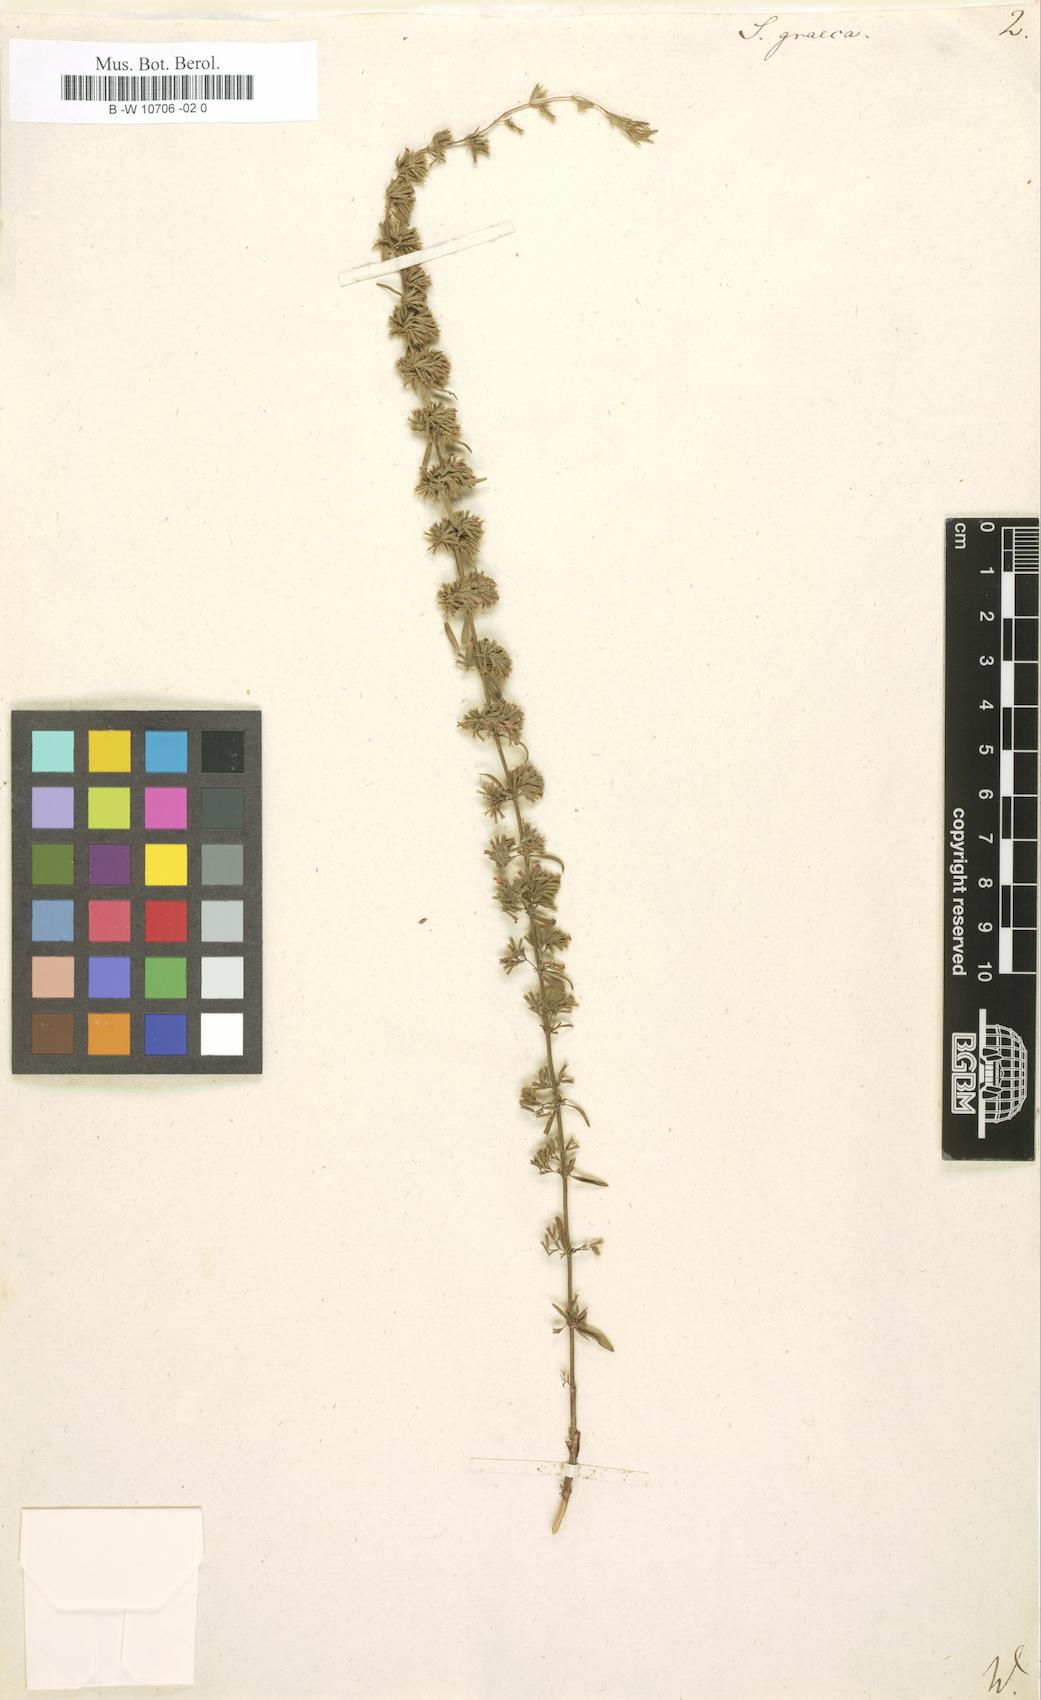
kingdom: Plantae
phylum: Tracheophyta
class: Magnoliopsida
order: Lamiales
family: Lamiaceae
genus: Micromeria
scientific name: Micromeria graeca
